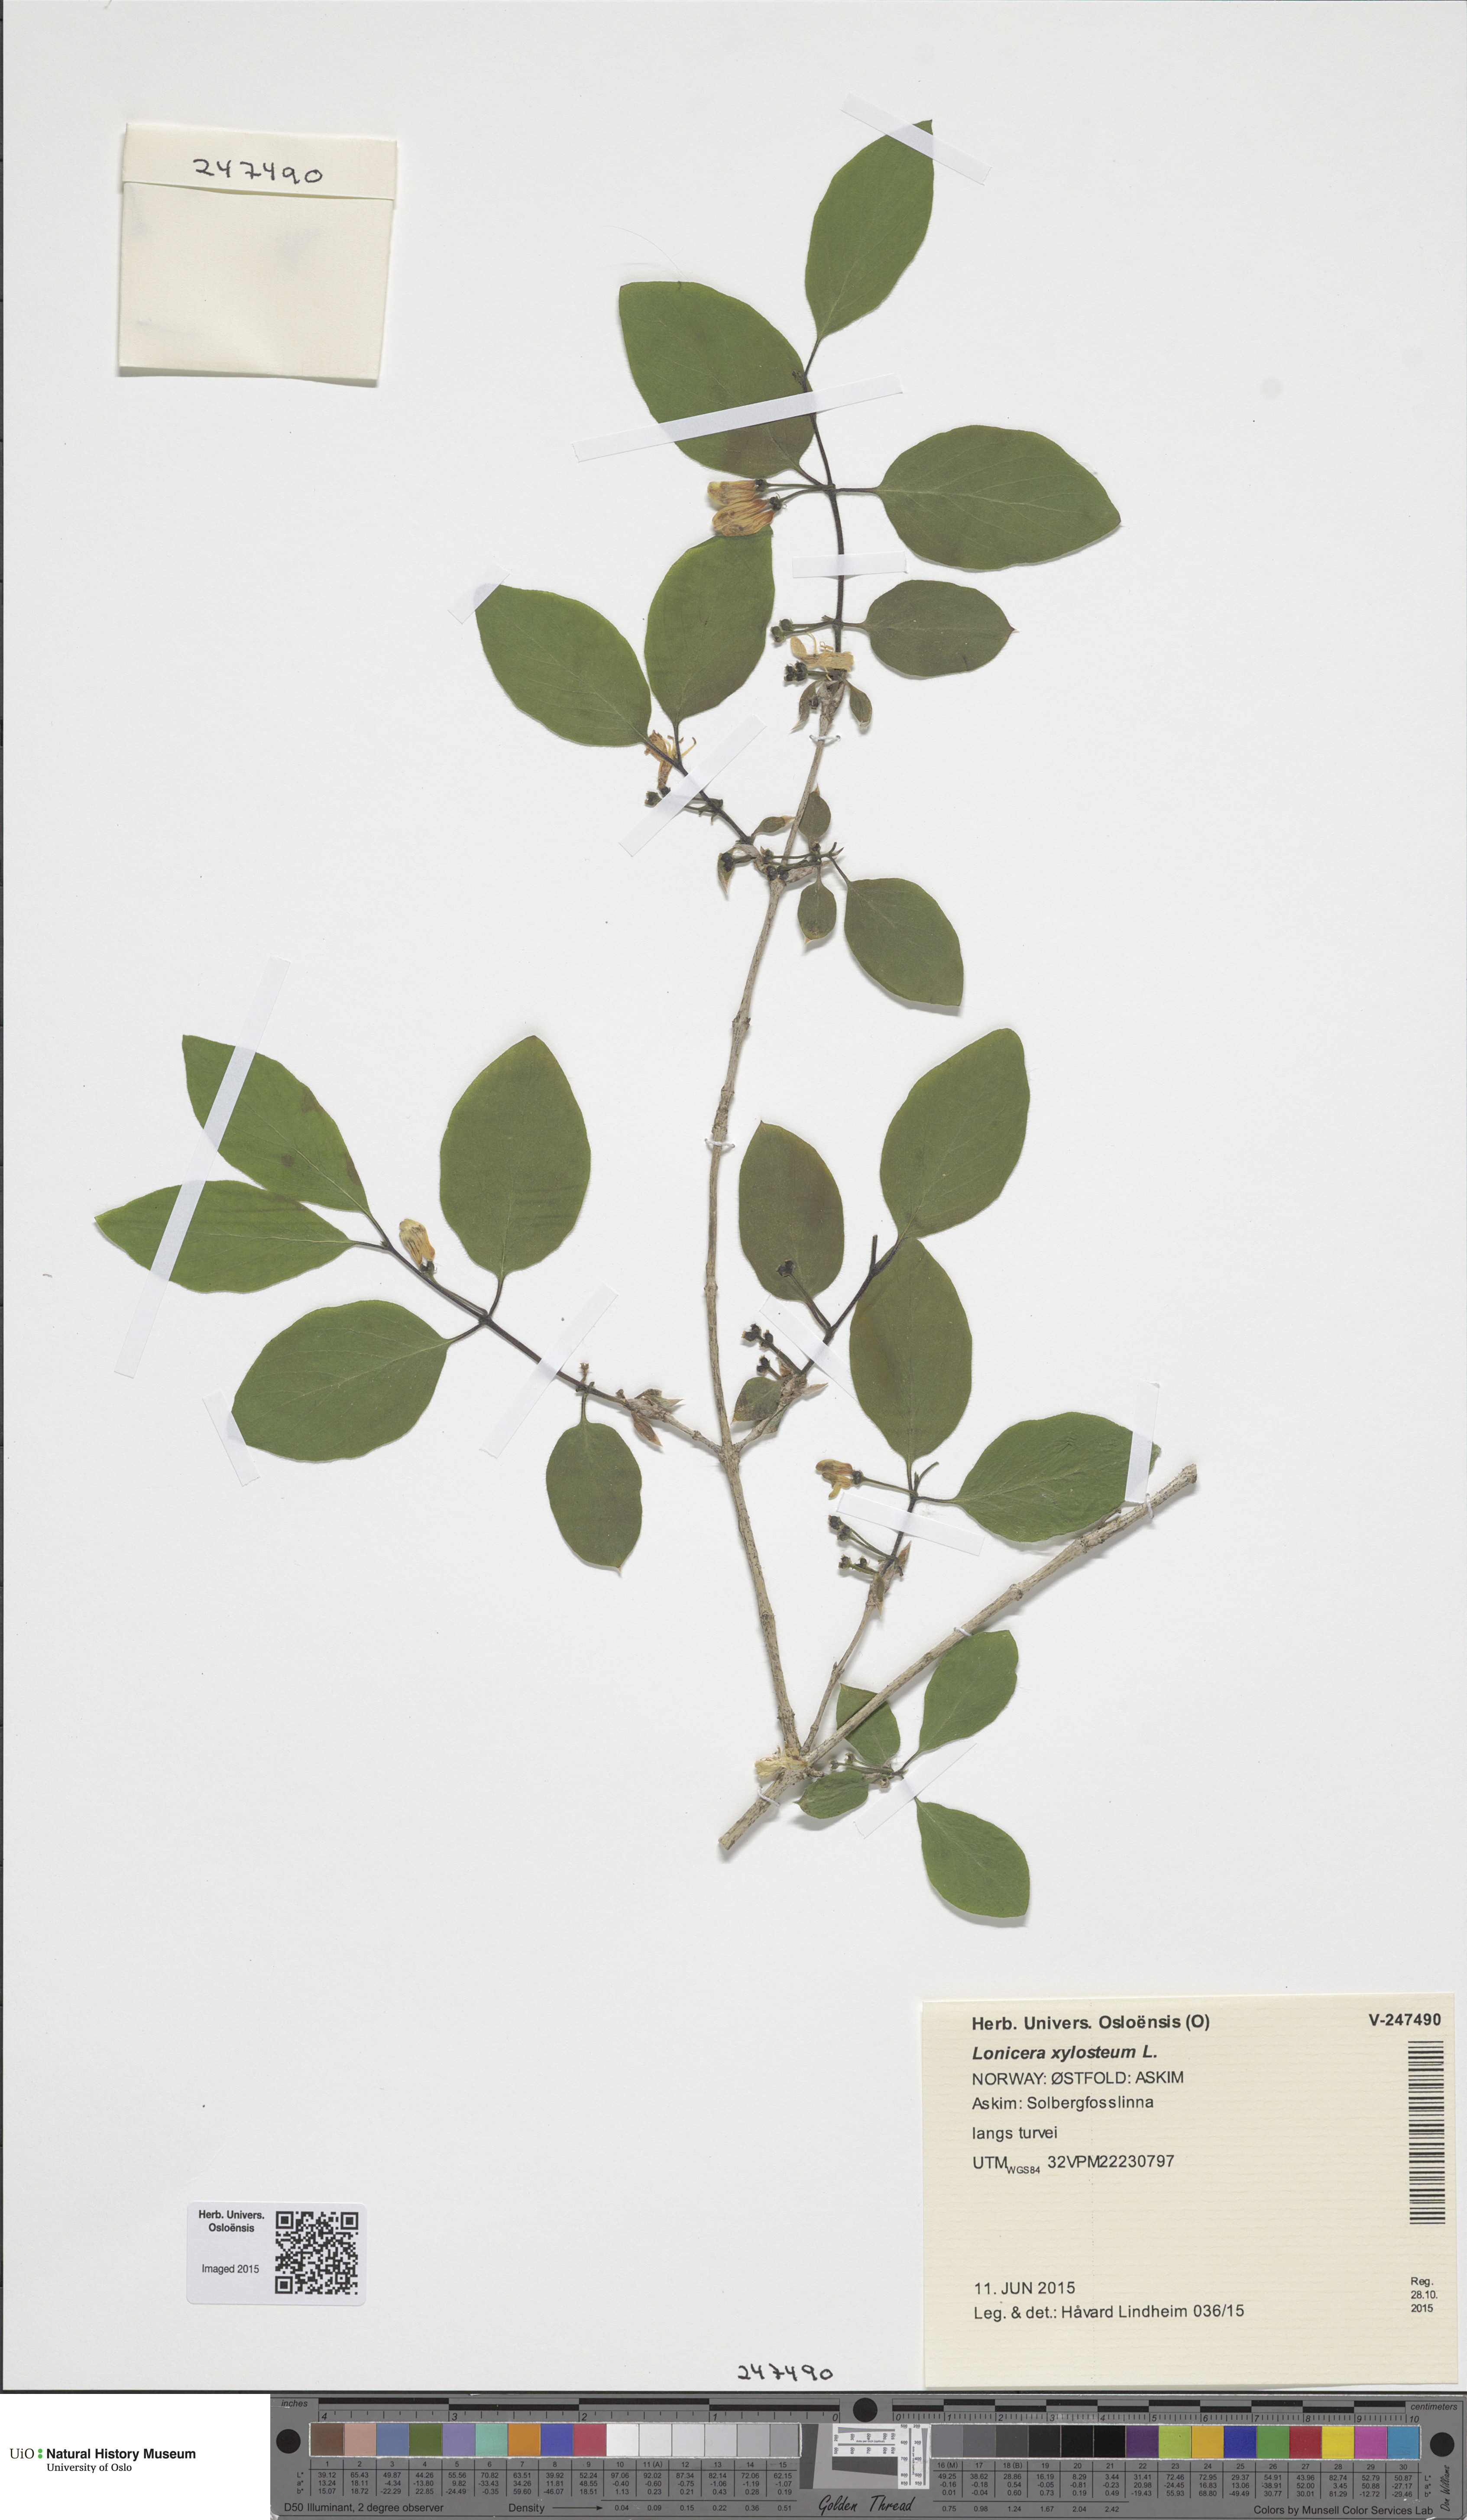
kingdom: Plantae
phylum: Tracheophyta
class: Magnoliopsida
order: Dipsacales
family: Caprifoliaceae
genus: Lonicera
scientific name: Lonicera xylosteum
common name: Fly honeysuckle
